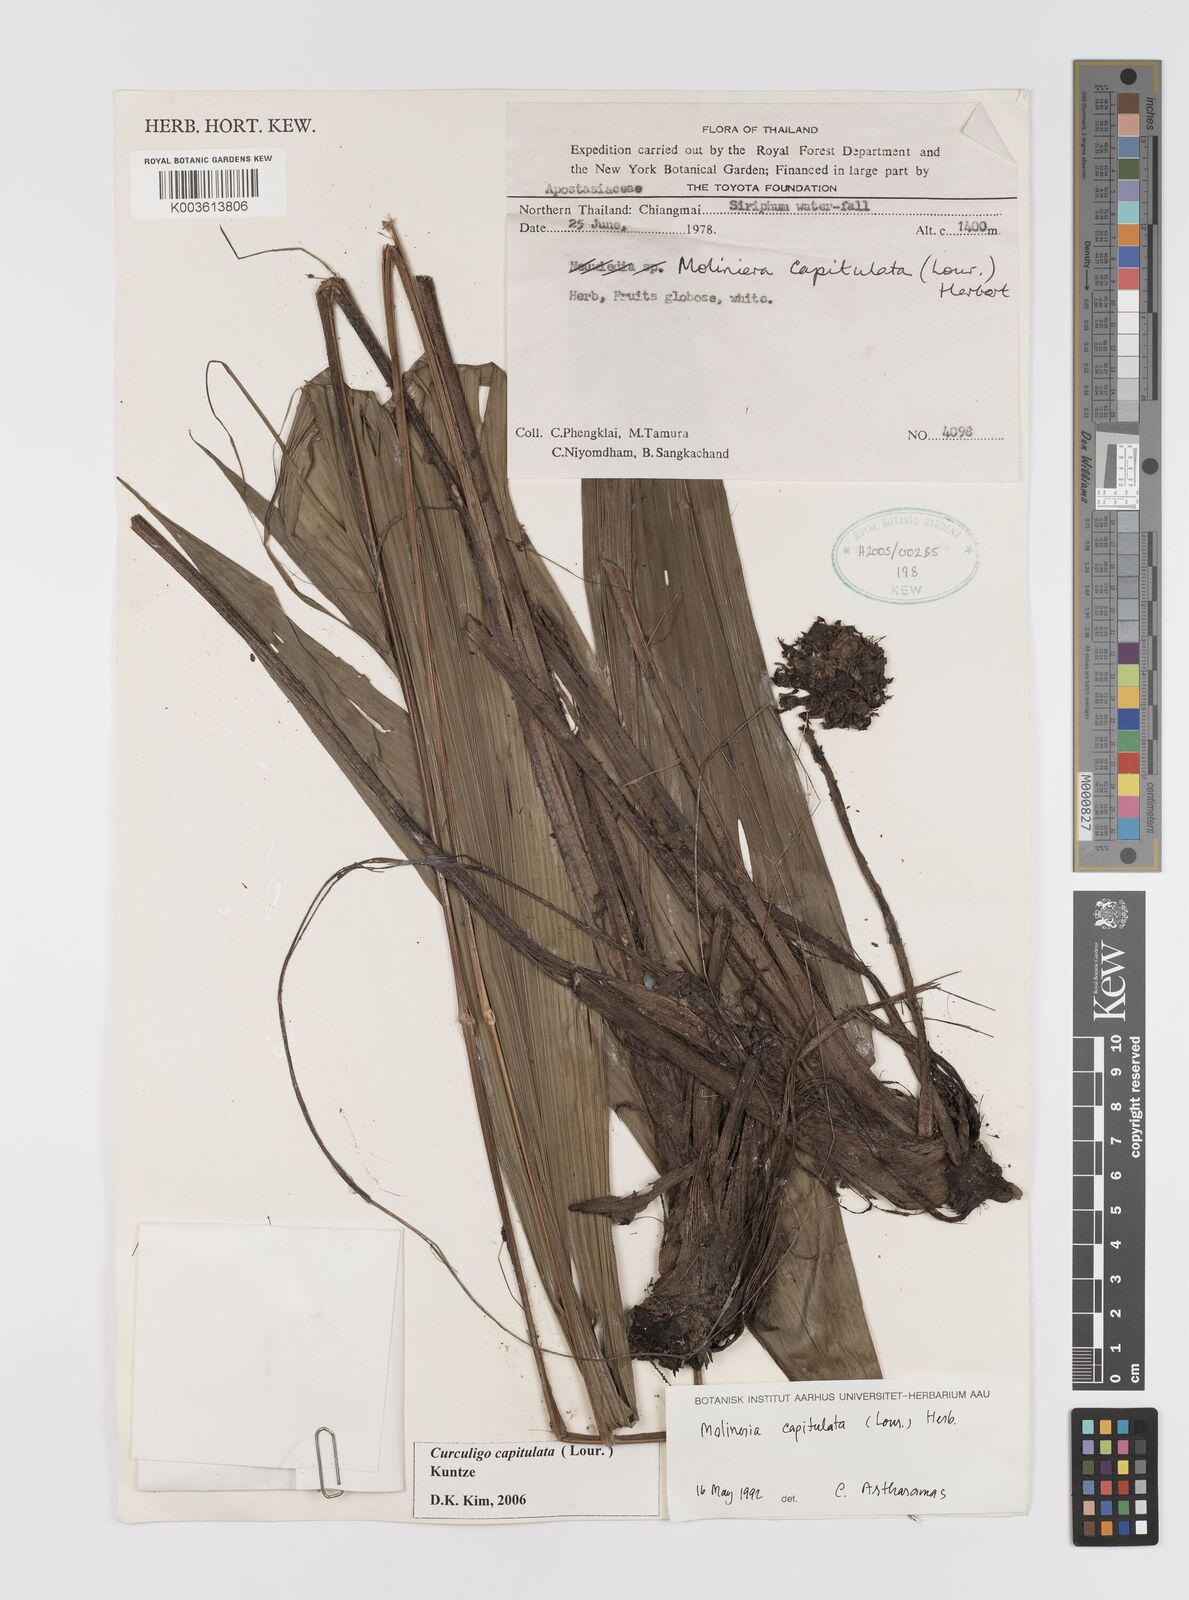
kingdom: Plantae
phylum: Tracheophyta
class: Liliopsida
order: Asparagales
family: Hypoxidaceae
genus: Curculigo
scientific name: Curculigo capitulata
